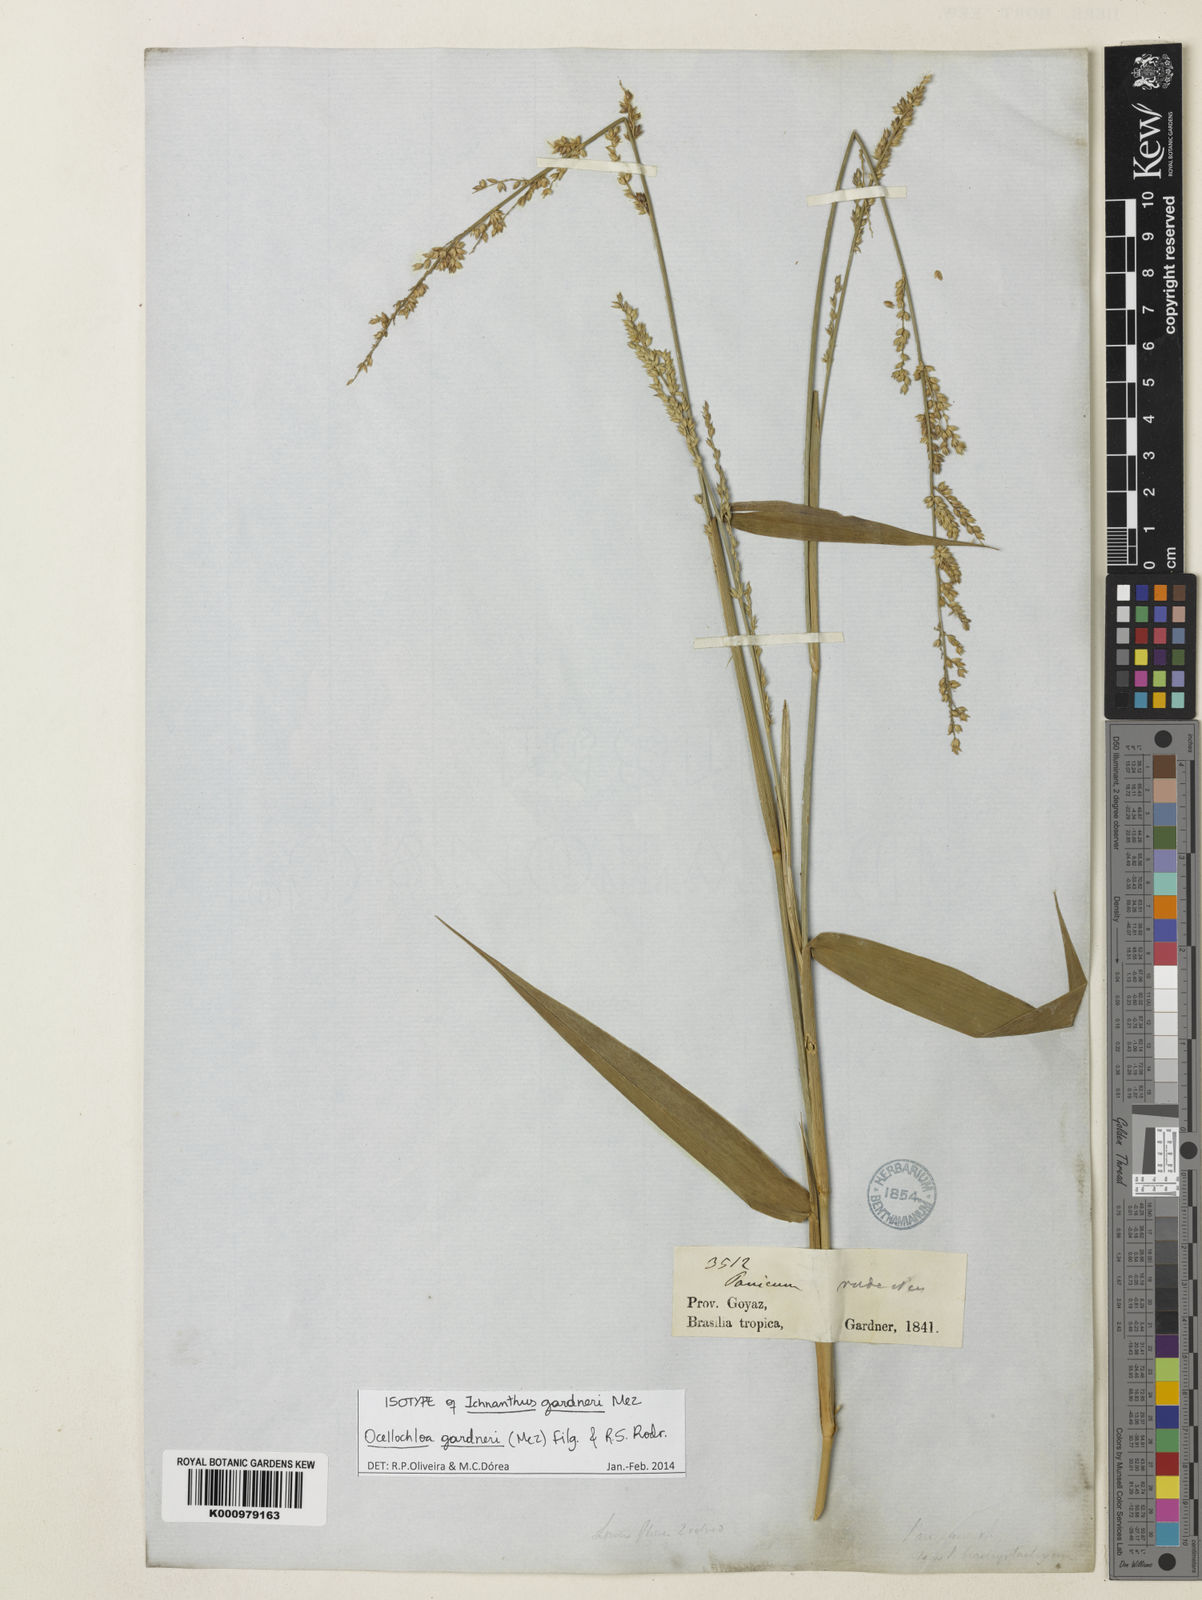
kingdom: Plantae
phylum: Tracheophyta
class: Liliopsida
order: Poales
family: Poaceae
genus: Ocellochloa
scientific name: Ocellochloa gardneri
